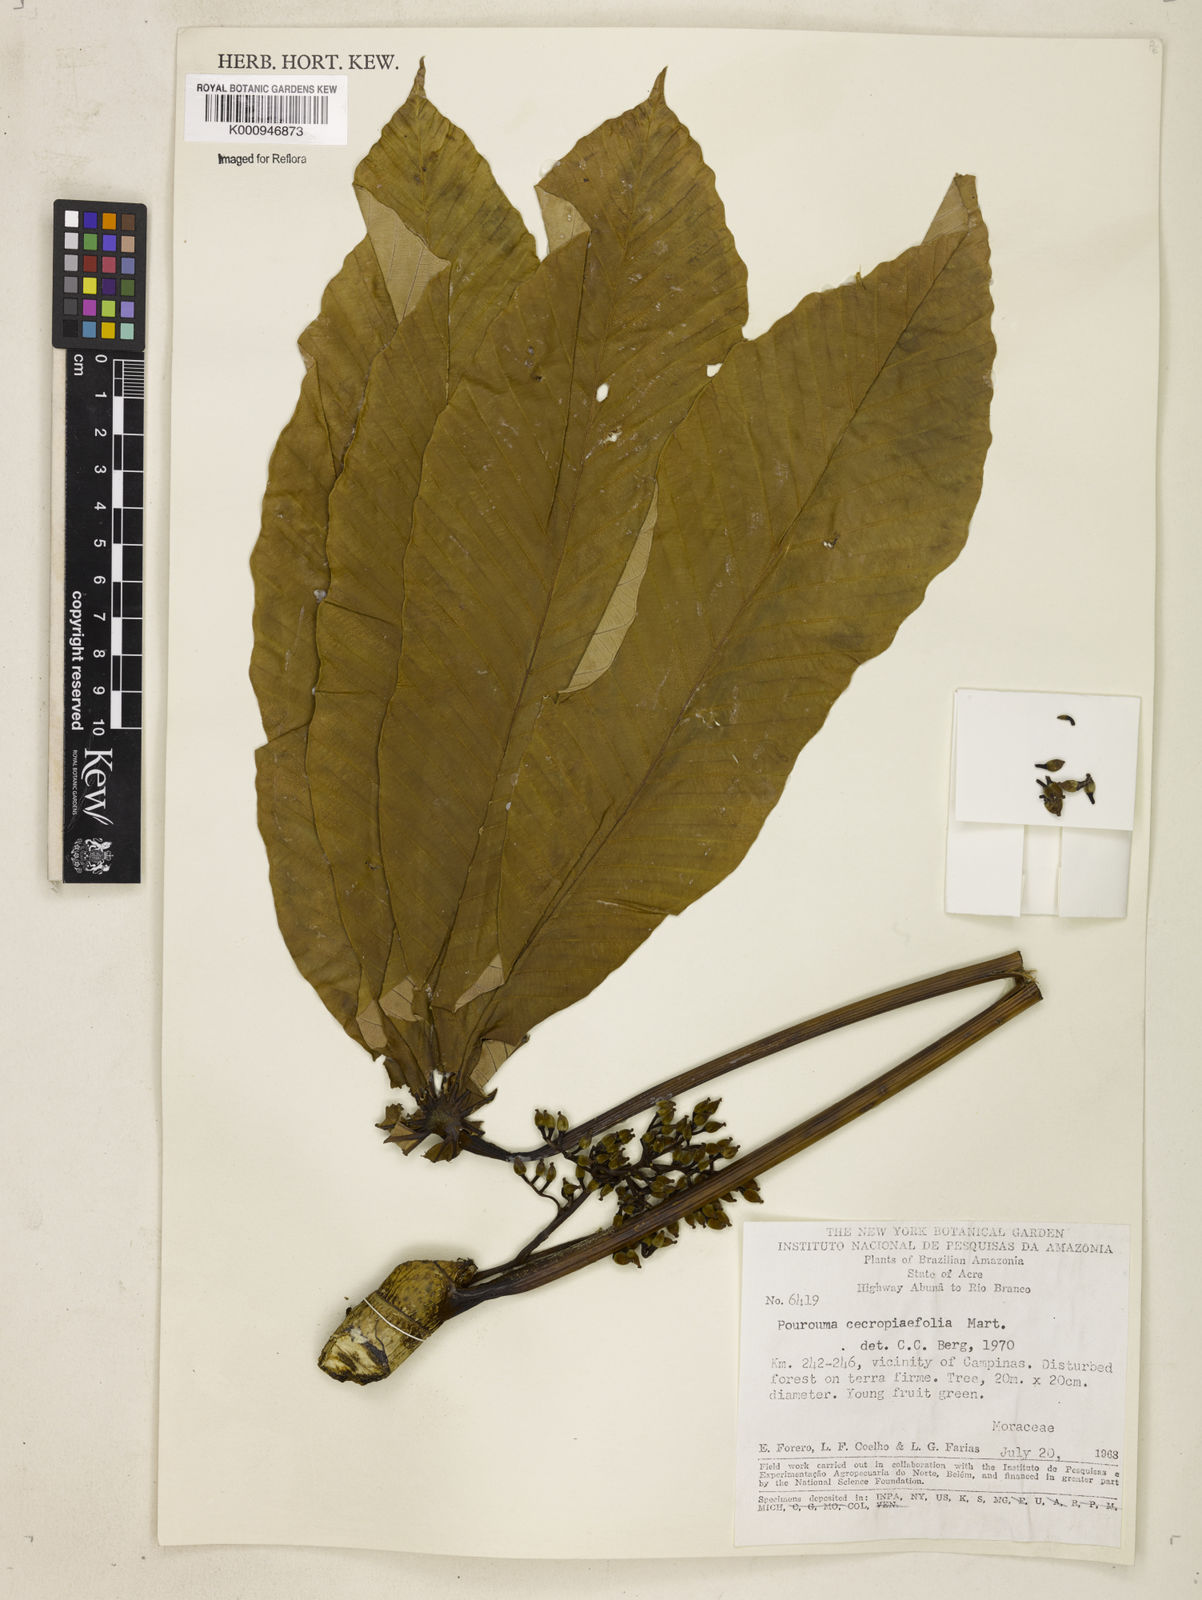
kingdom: Plantae
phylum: Tracheophyta
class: Magnoliopsida
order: Rosales
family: Urticaceae
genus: Pourouma
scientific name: Pourouma cecropiifolia
